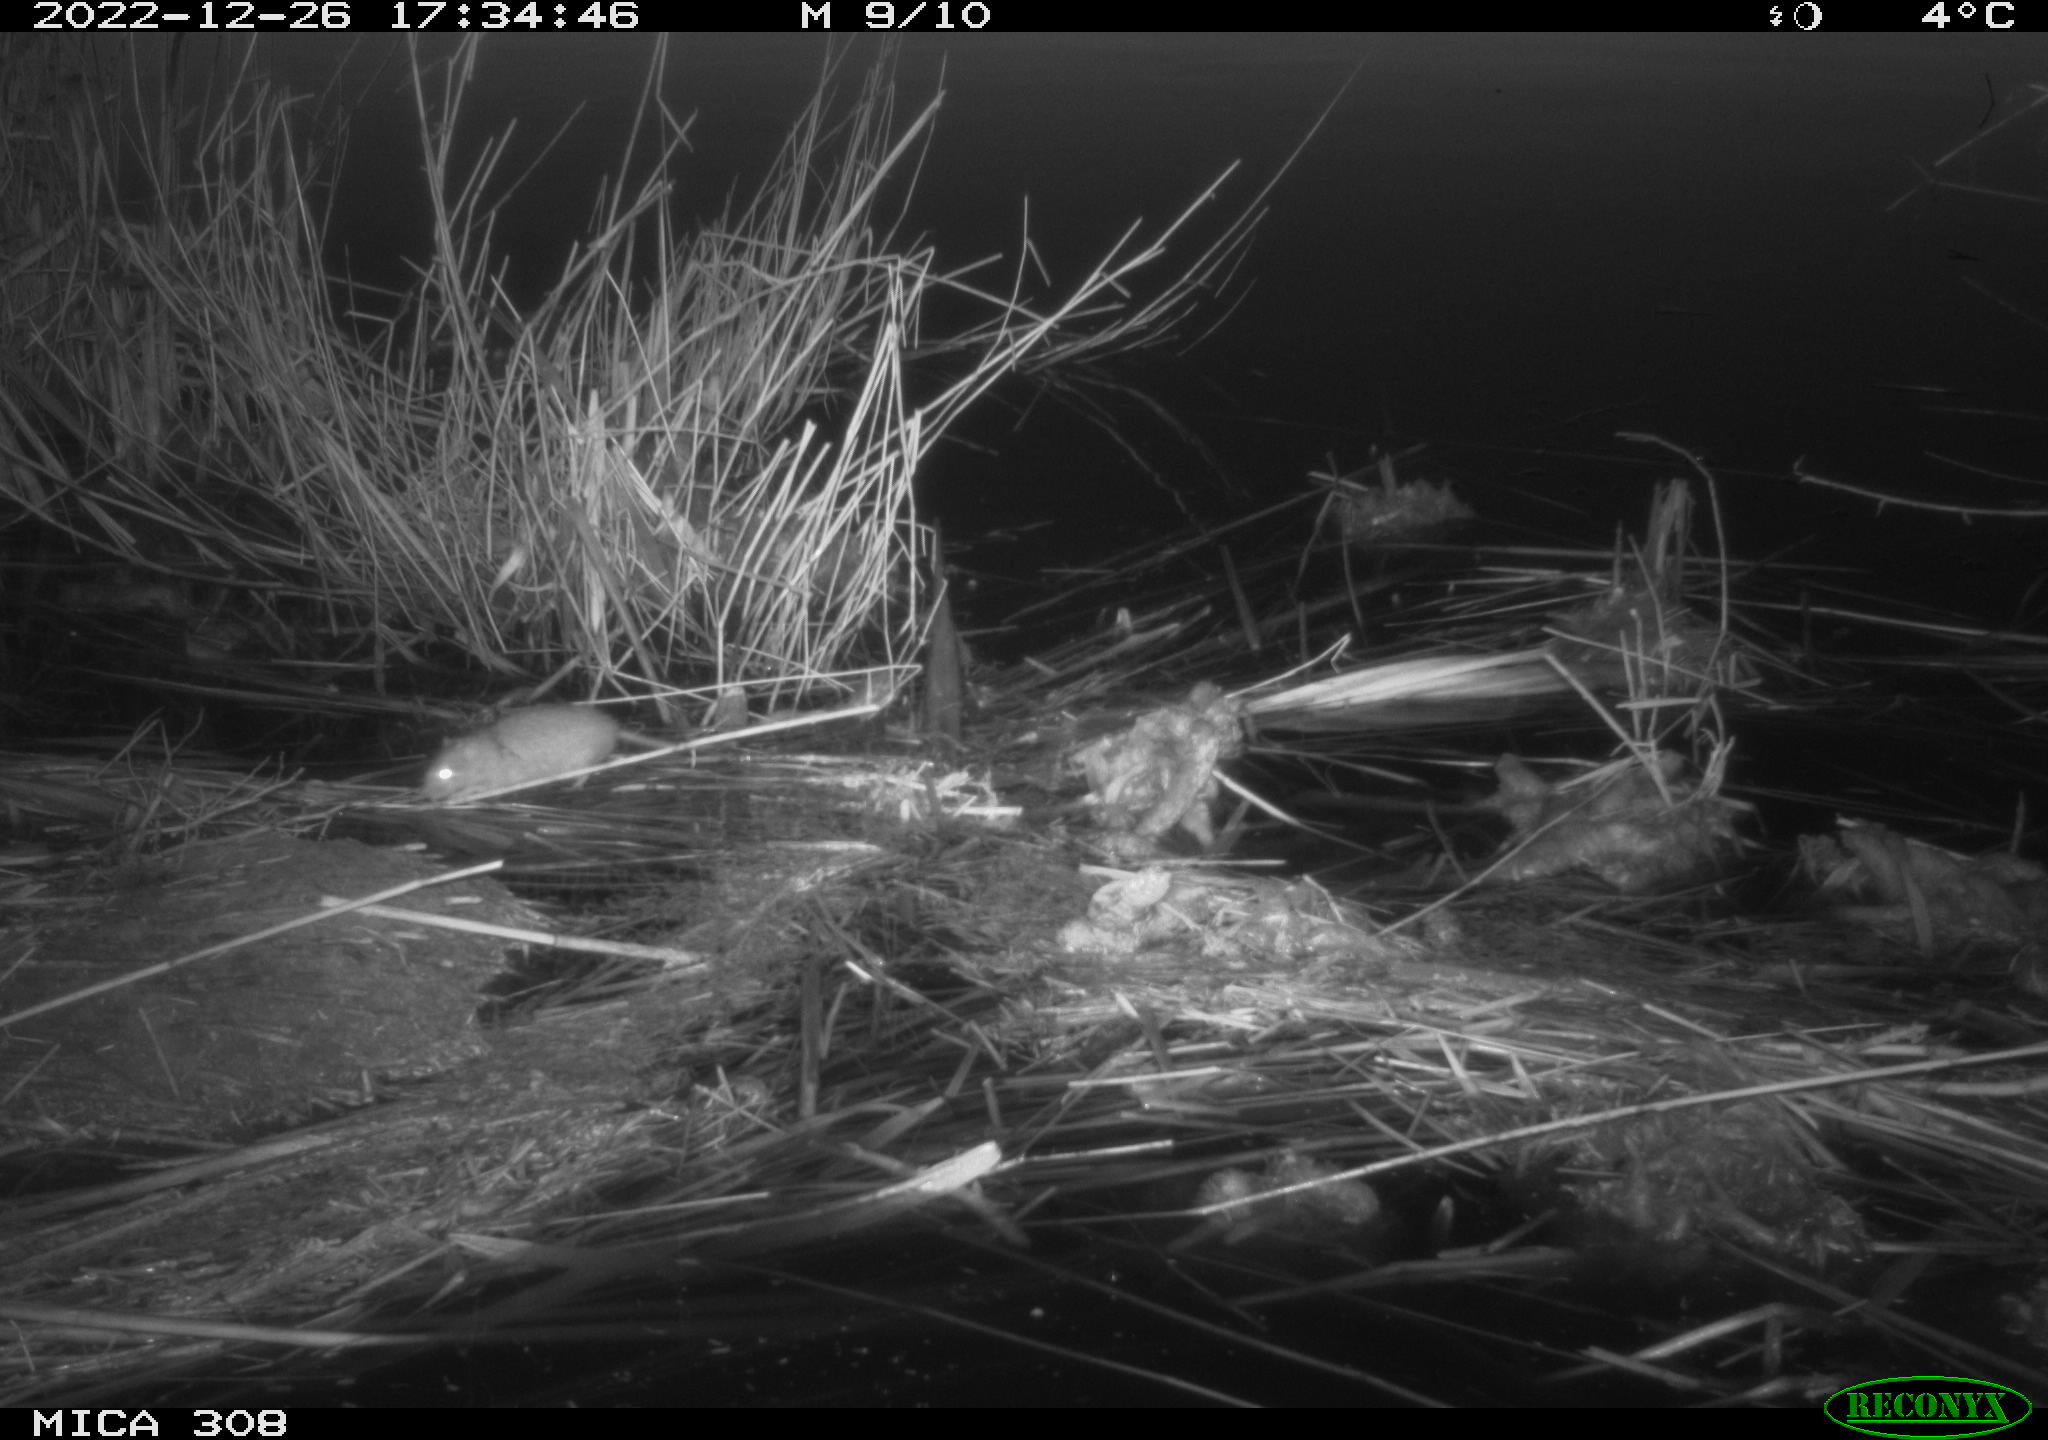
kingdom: Animalia
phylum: Chordata
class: Mammalia
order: Rodentia
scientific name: Rodentia
